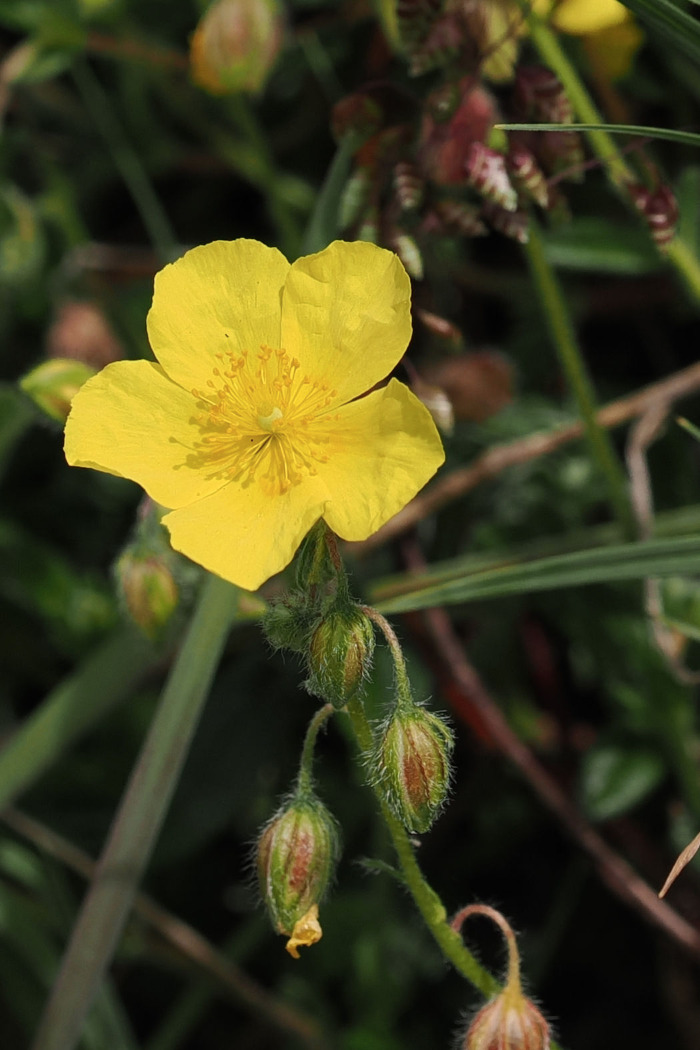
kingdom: Plantae
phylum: Tracheophyta
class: Magnoliopsida
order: Malvales
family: Cistaceae
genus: Helianthemum
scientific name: Helianthemum nummularium
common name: Bakke-soløje
